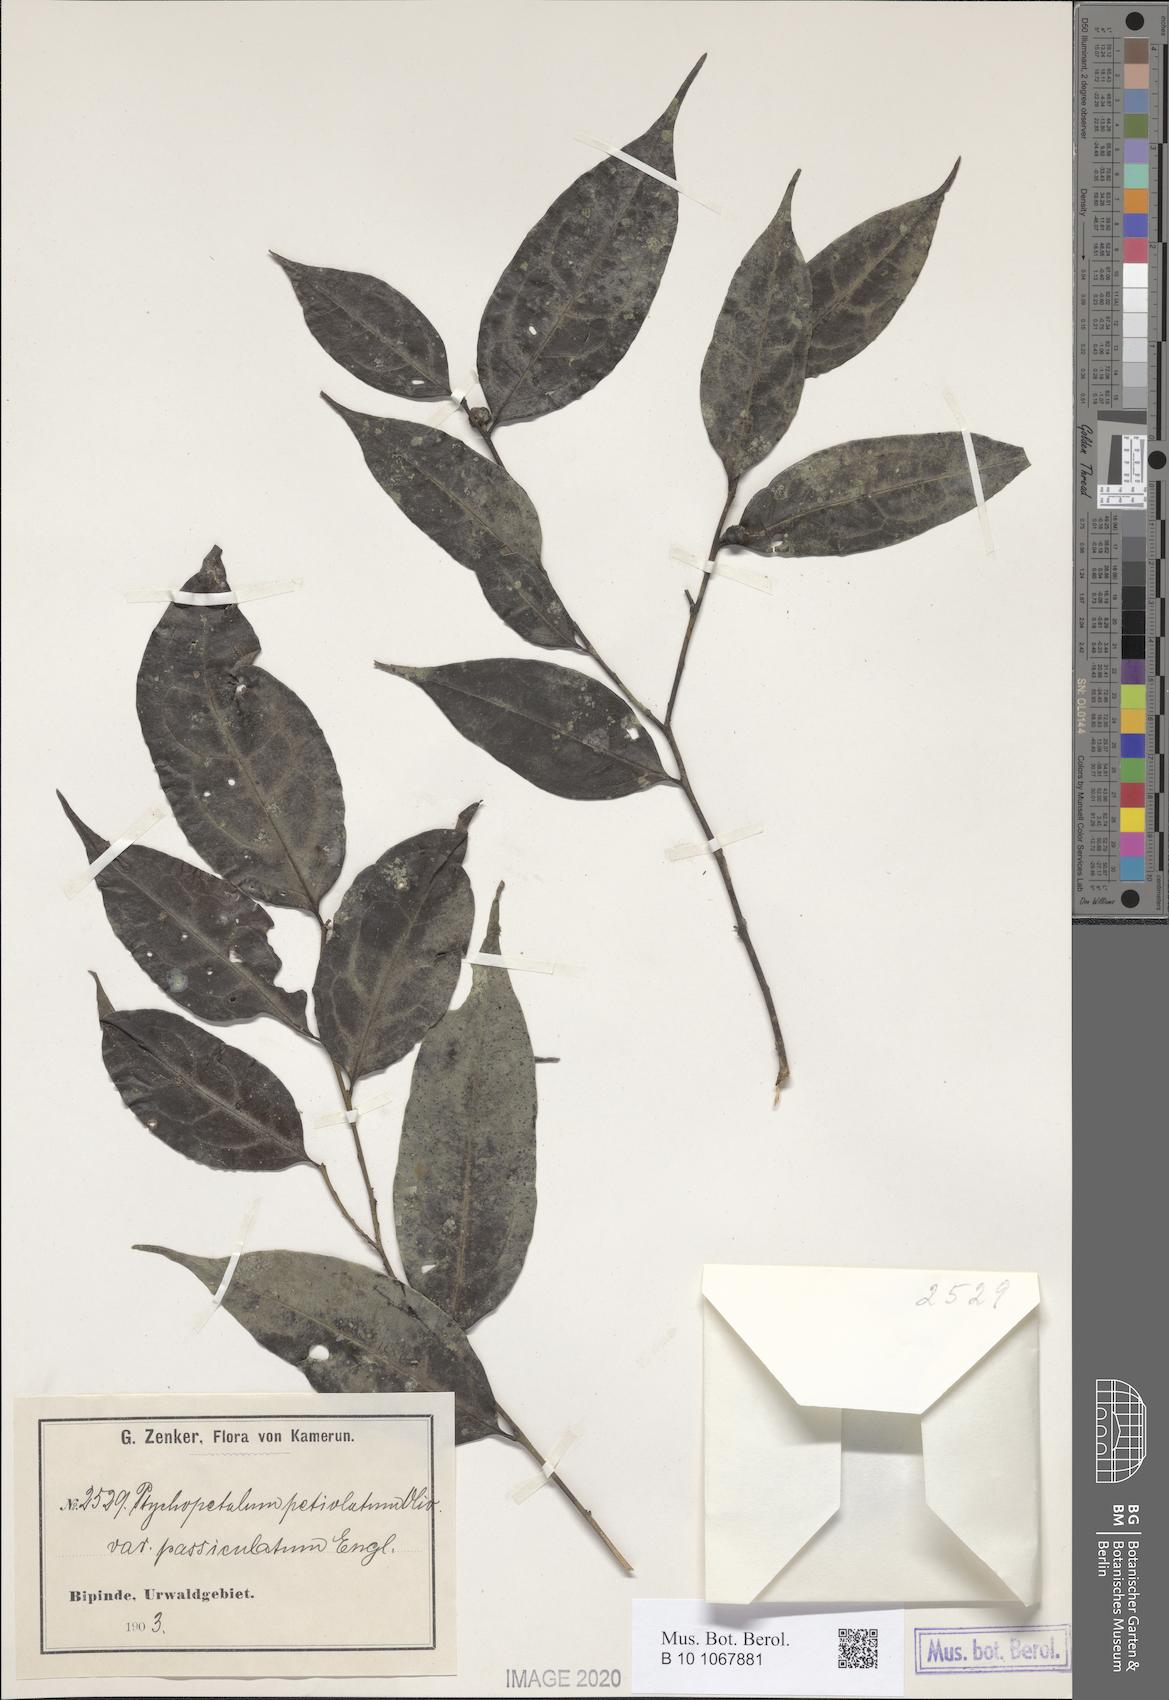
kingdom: Plantae
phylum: Tracheophyta
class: Magnoliopsida
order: Santalales
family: Olacaceae
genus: Ptychopetalum
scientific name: Ptychopetalum petiolatum
